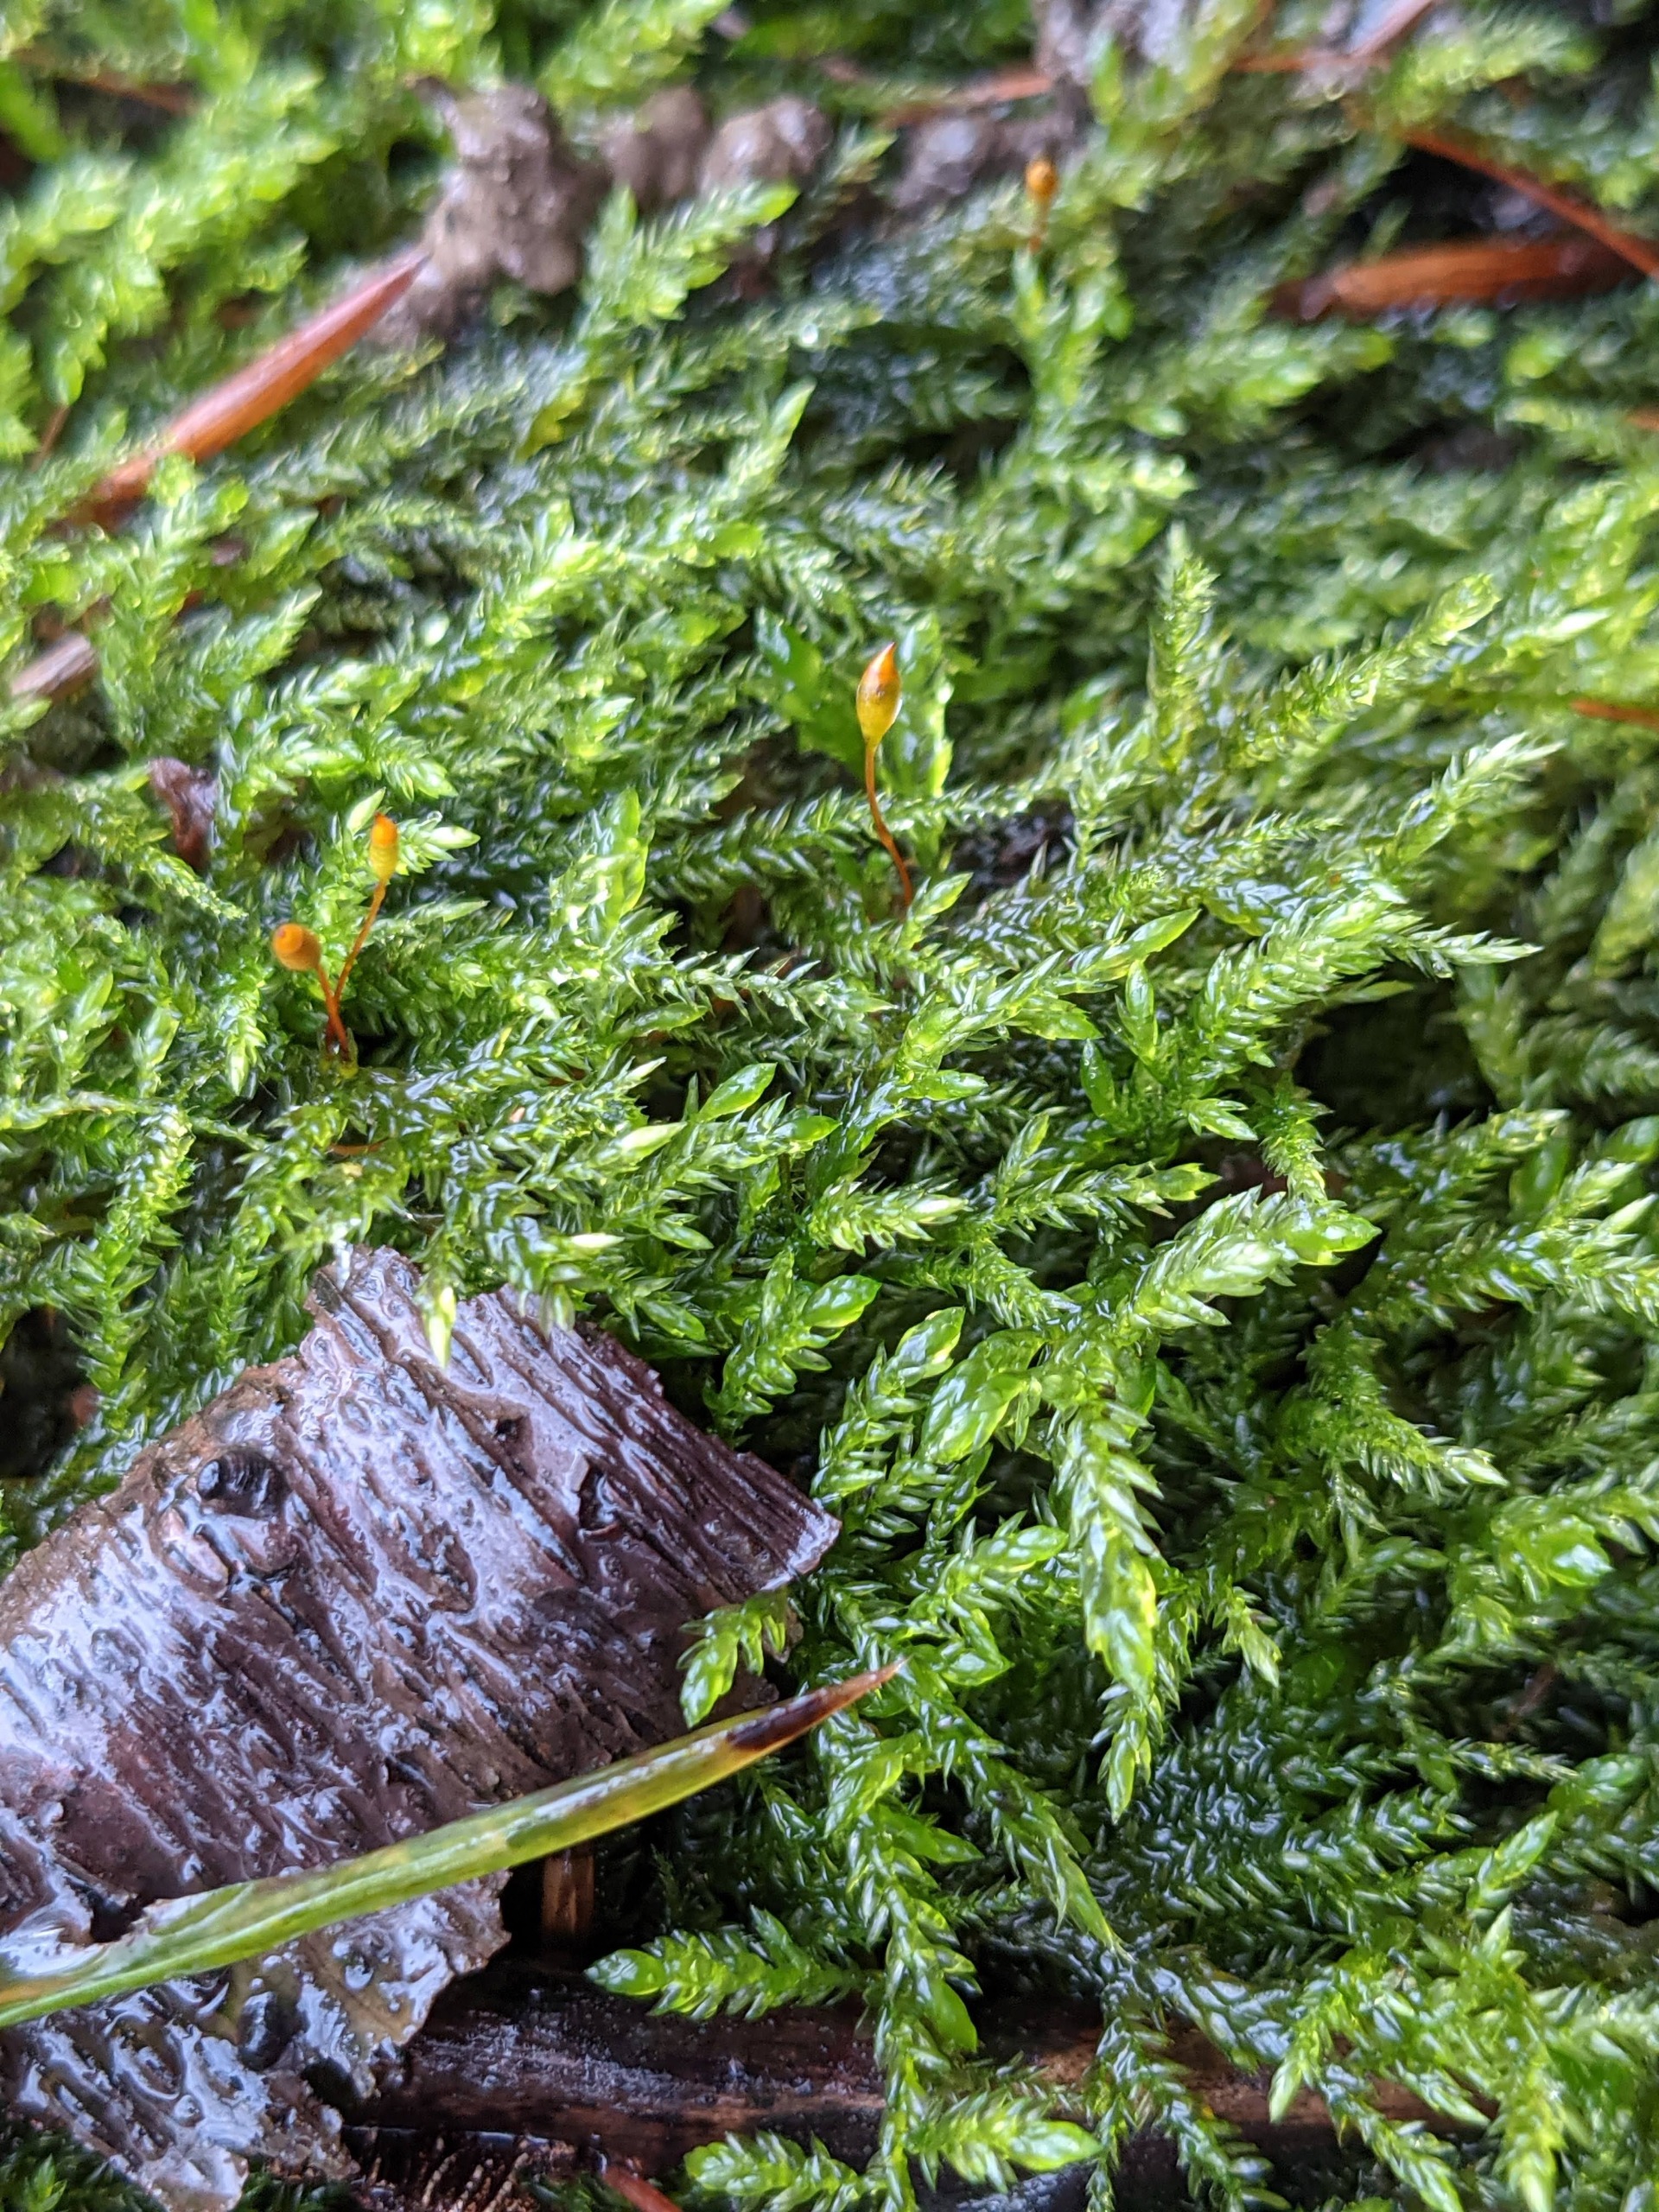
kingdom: Plantae
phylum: Bryophyta
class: Bryopsida
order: Hypnales
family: Lembophyllaceae
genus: Isothecium
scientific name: Isothecium alopecuroides
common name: Stor stammemos
